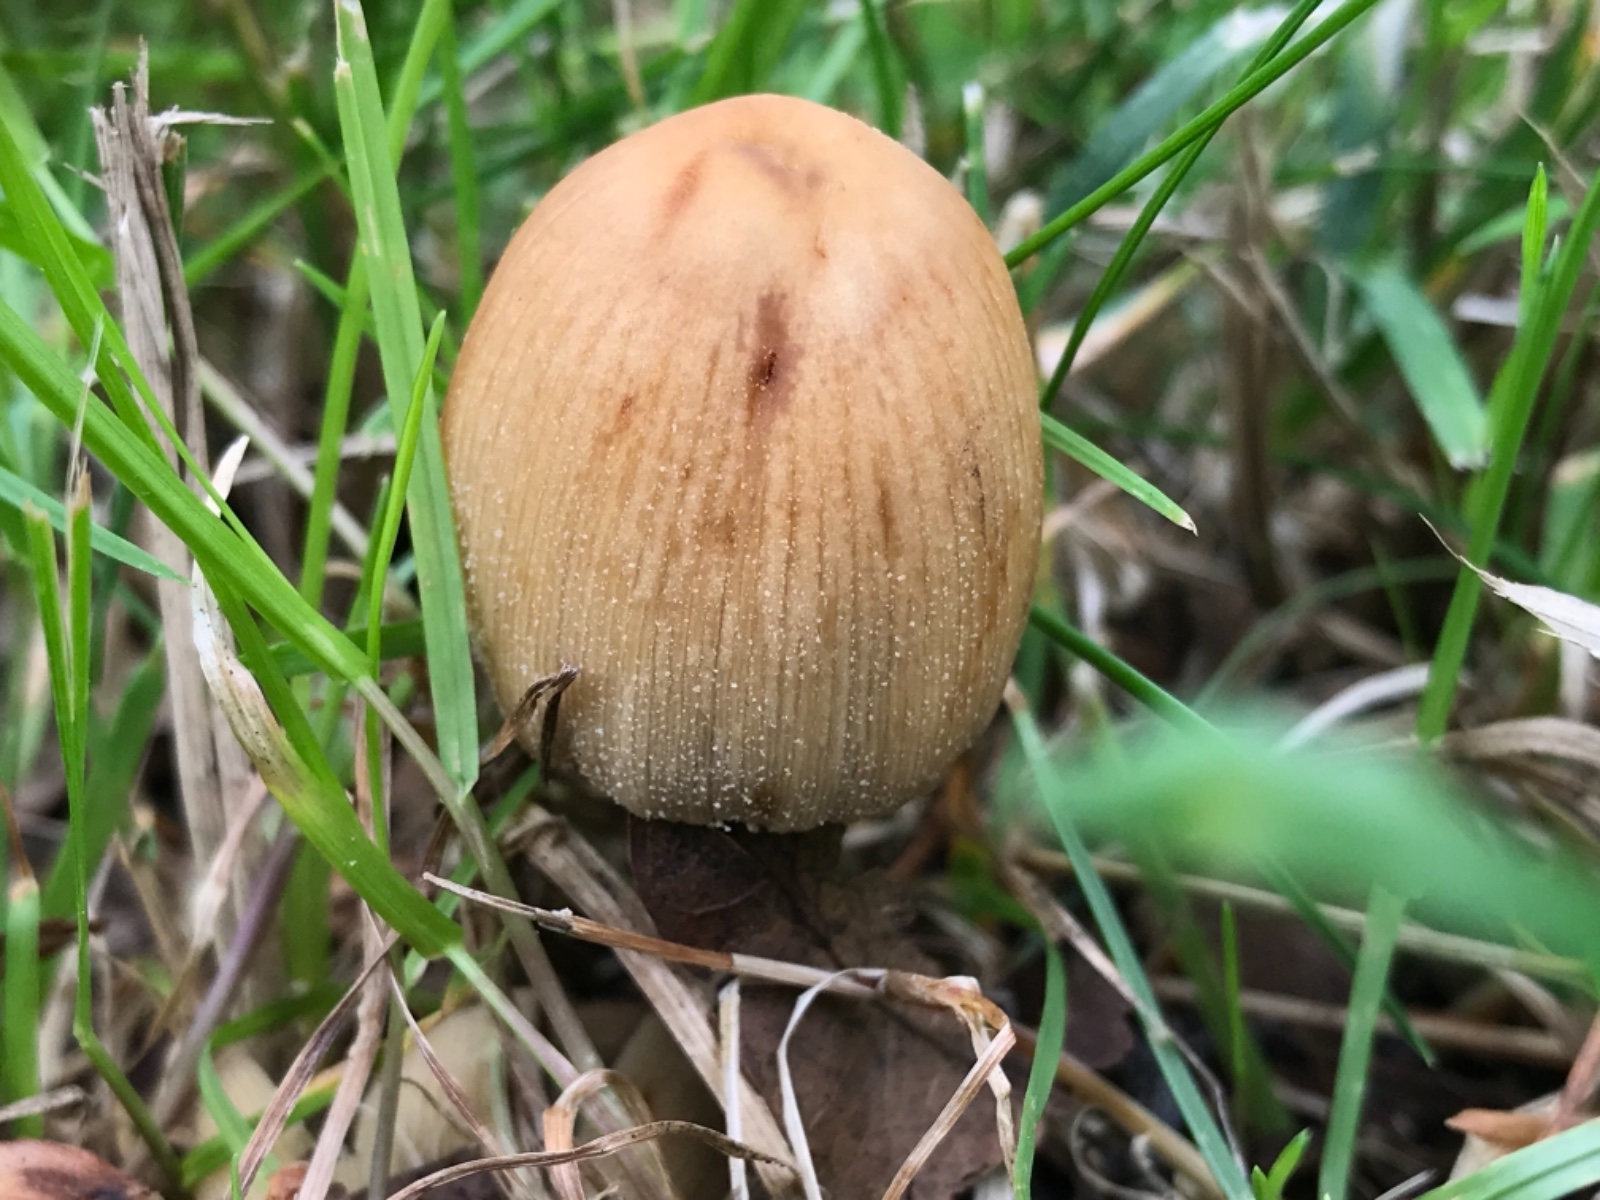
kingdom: Fungi
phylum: Basidiomycota
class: Agaricomycetes
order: Agaricales
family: Psathyrellaceae
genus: Coprinellus
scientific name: Coprinellus micaceus
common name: glimmer-blækhat
